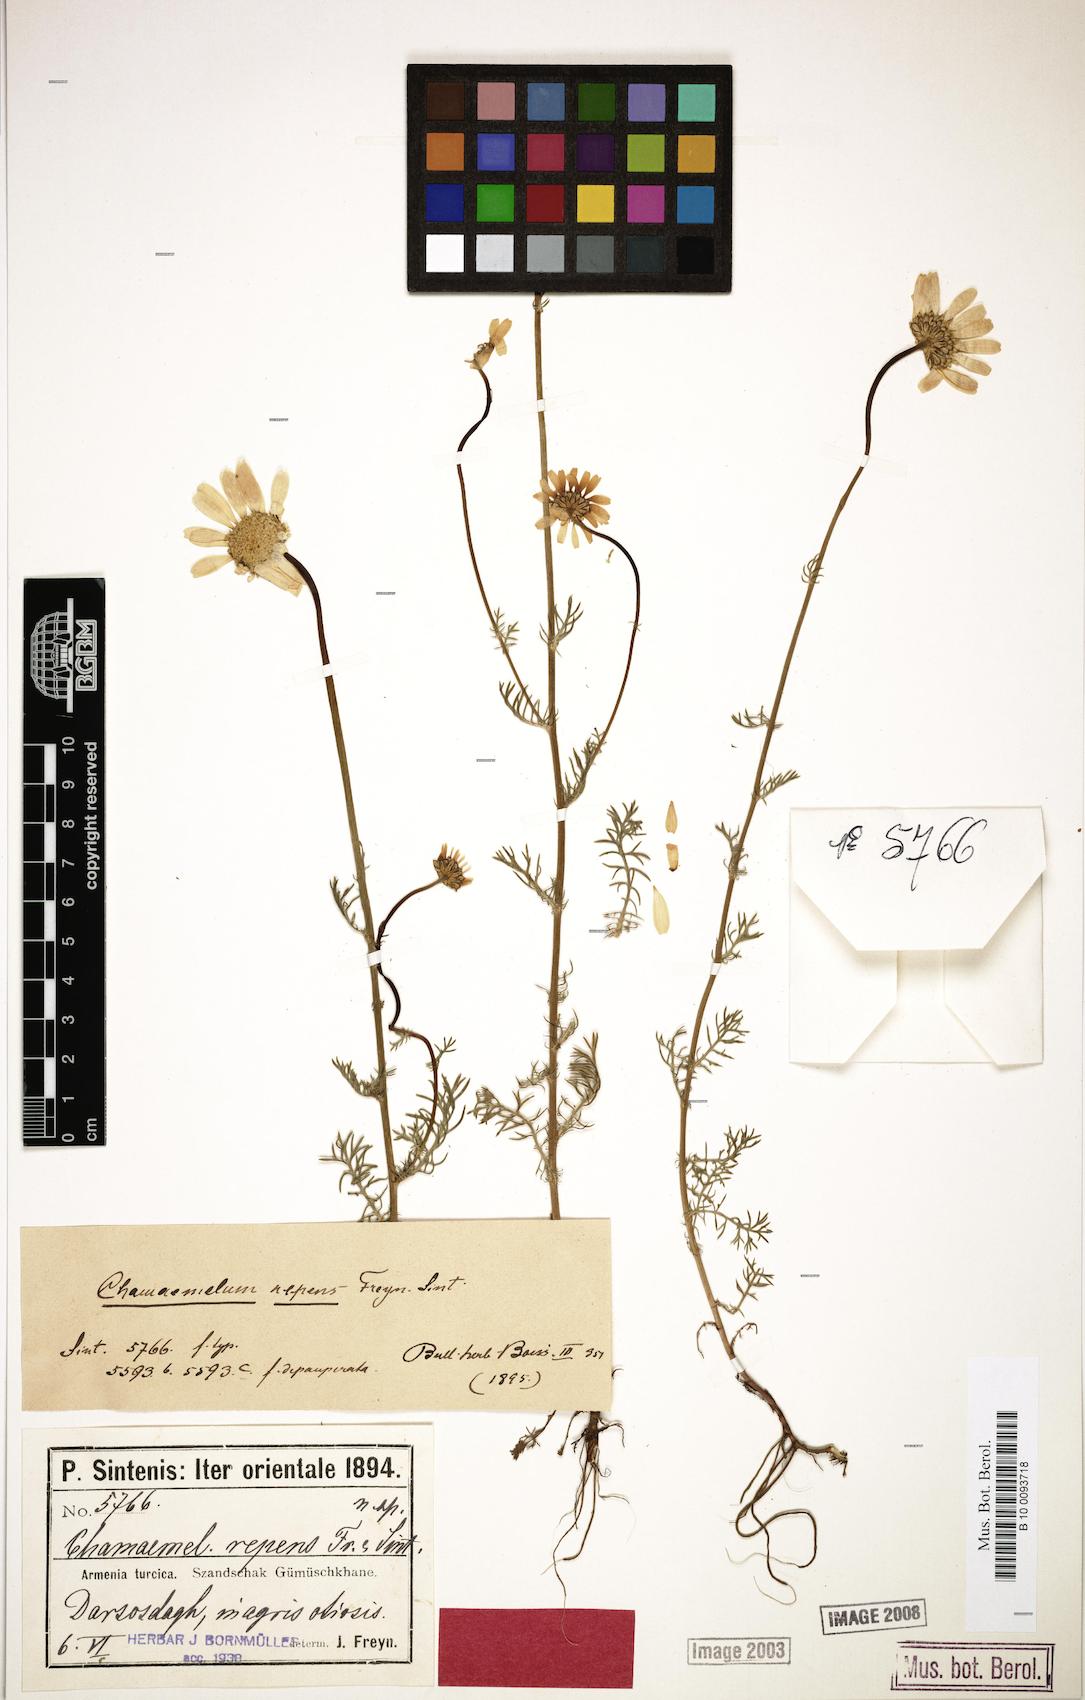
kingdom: Plantae
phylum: Tracheophyta
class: Magnoliopsida
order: Asterales
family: Asteraceae
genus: Tripleurospermum
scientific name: Tripleurospermum repens
